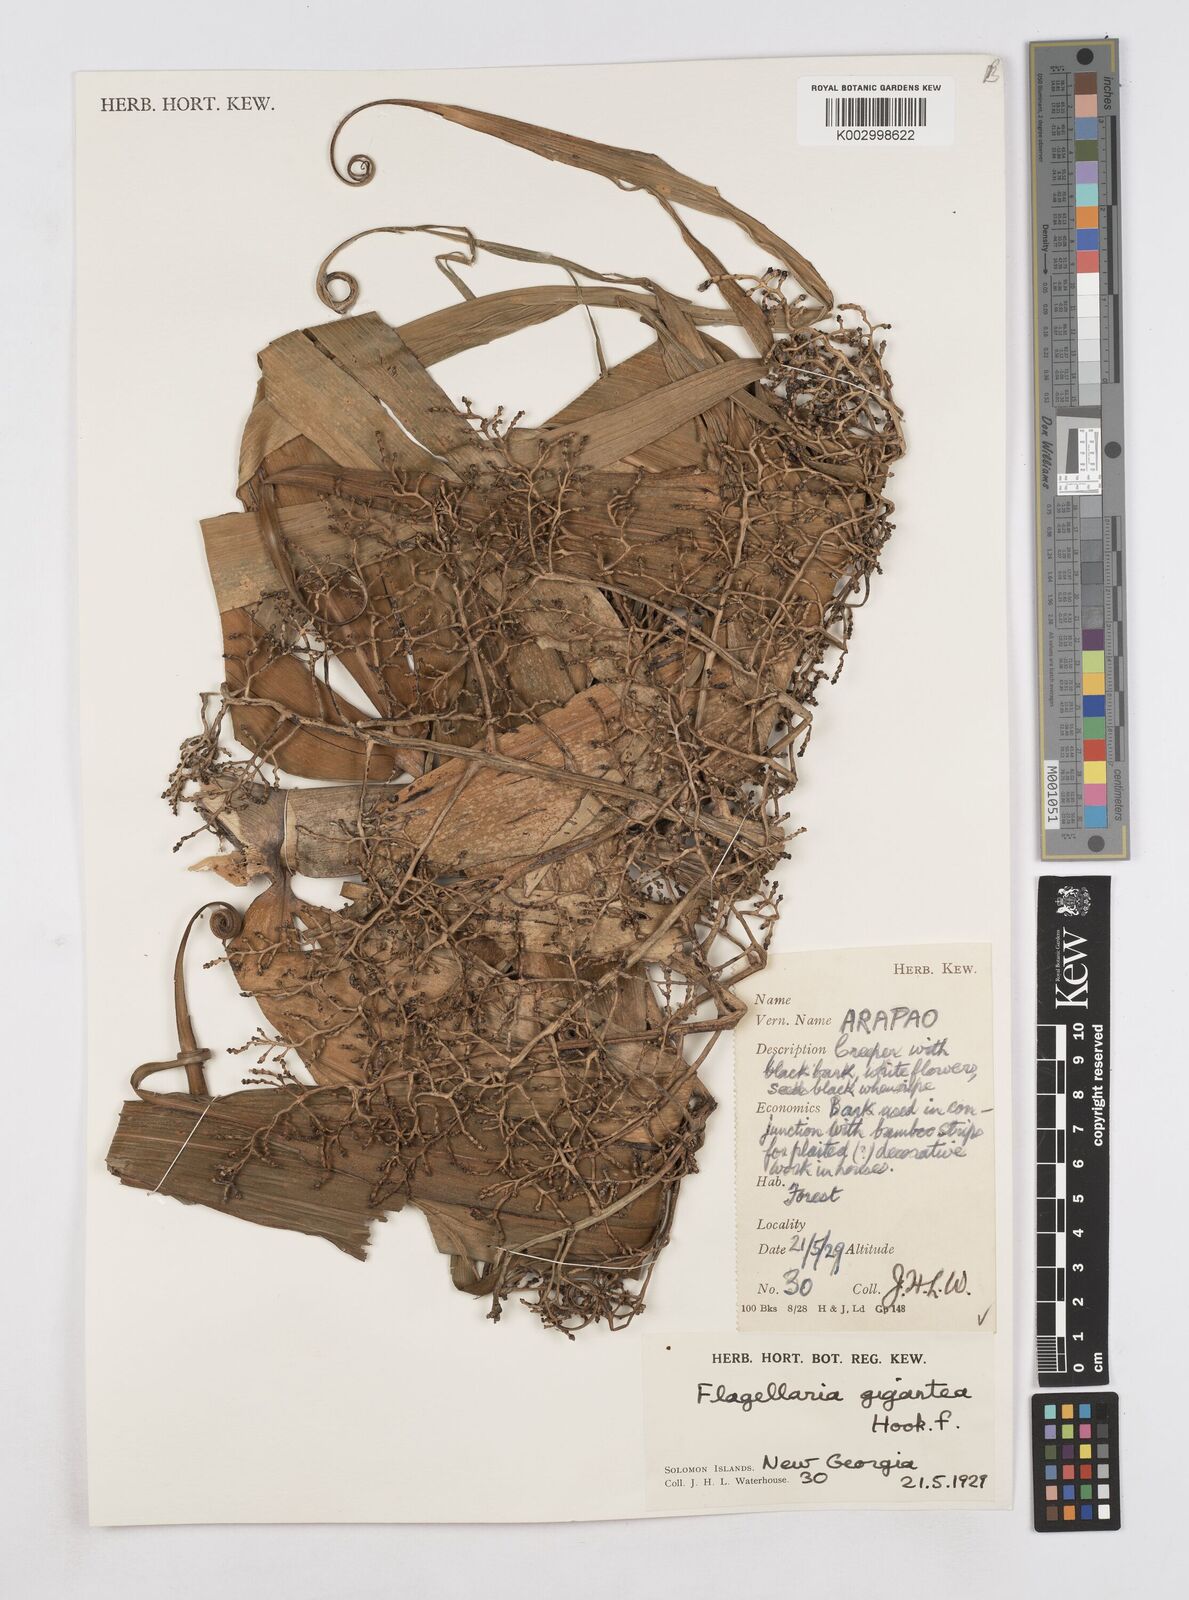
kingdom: Plantae
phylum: Tracheophyta
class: Liliopsida
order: Poales
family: Flagellariaceae
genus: Flagellaria
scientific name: Flagellaria gigantea
